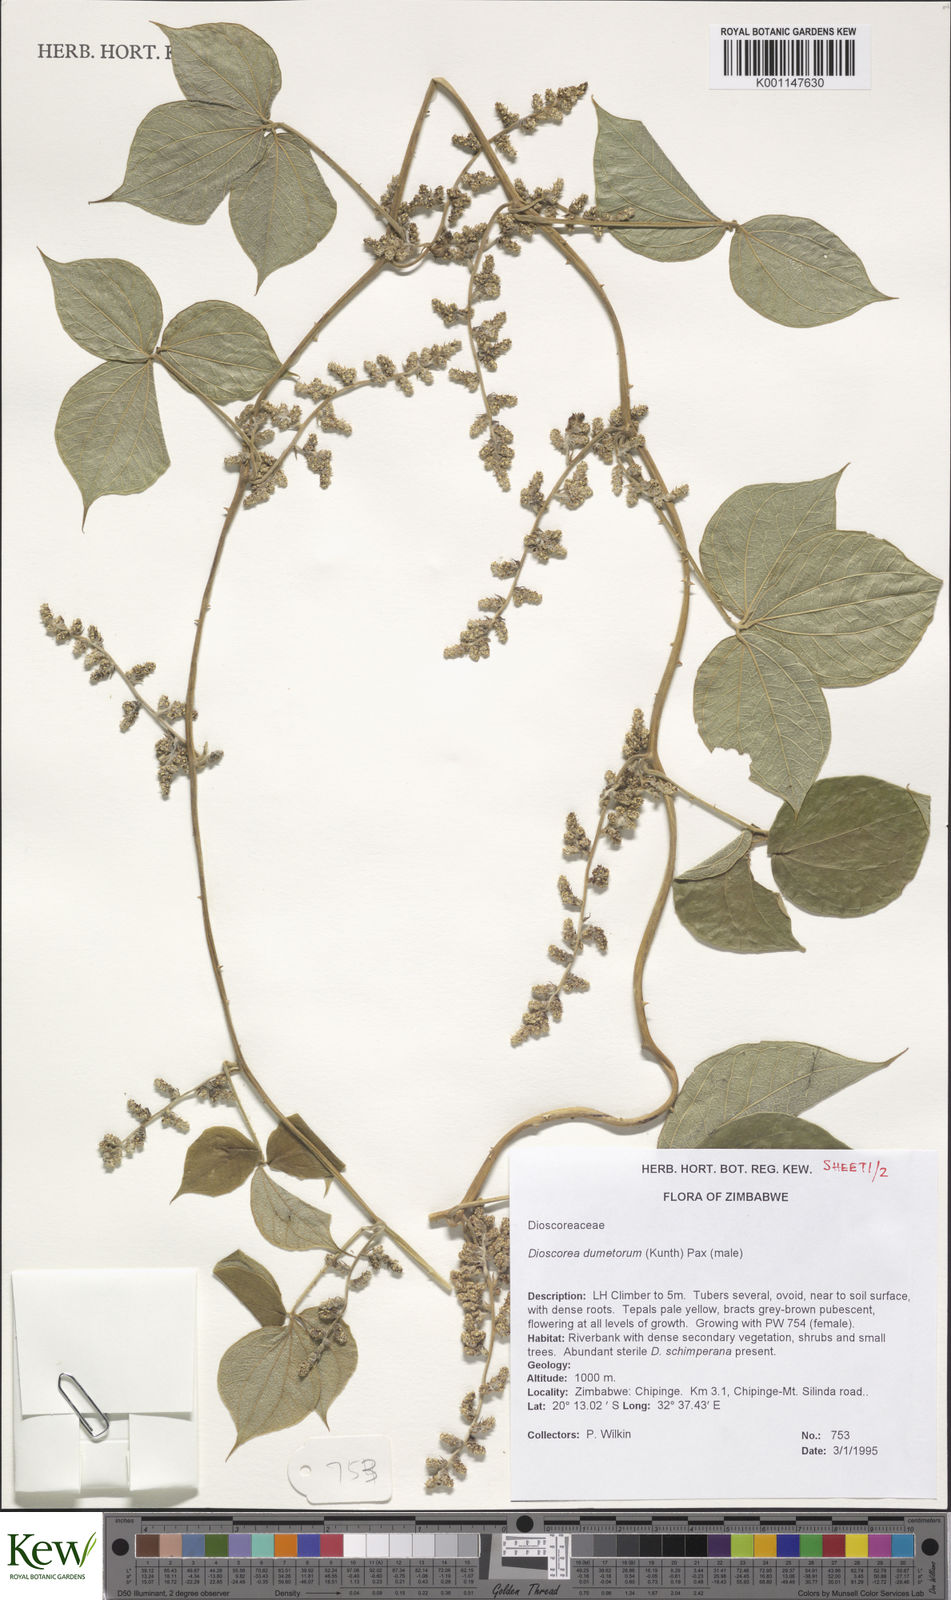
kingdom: Plantae
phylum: Tracheophyta
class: Liliopsida
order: Dioscoreales
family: Dioscoreaceae
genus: Dioscorea
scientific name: Dioscorea dumetorum
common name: African bitter yam
